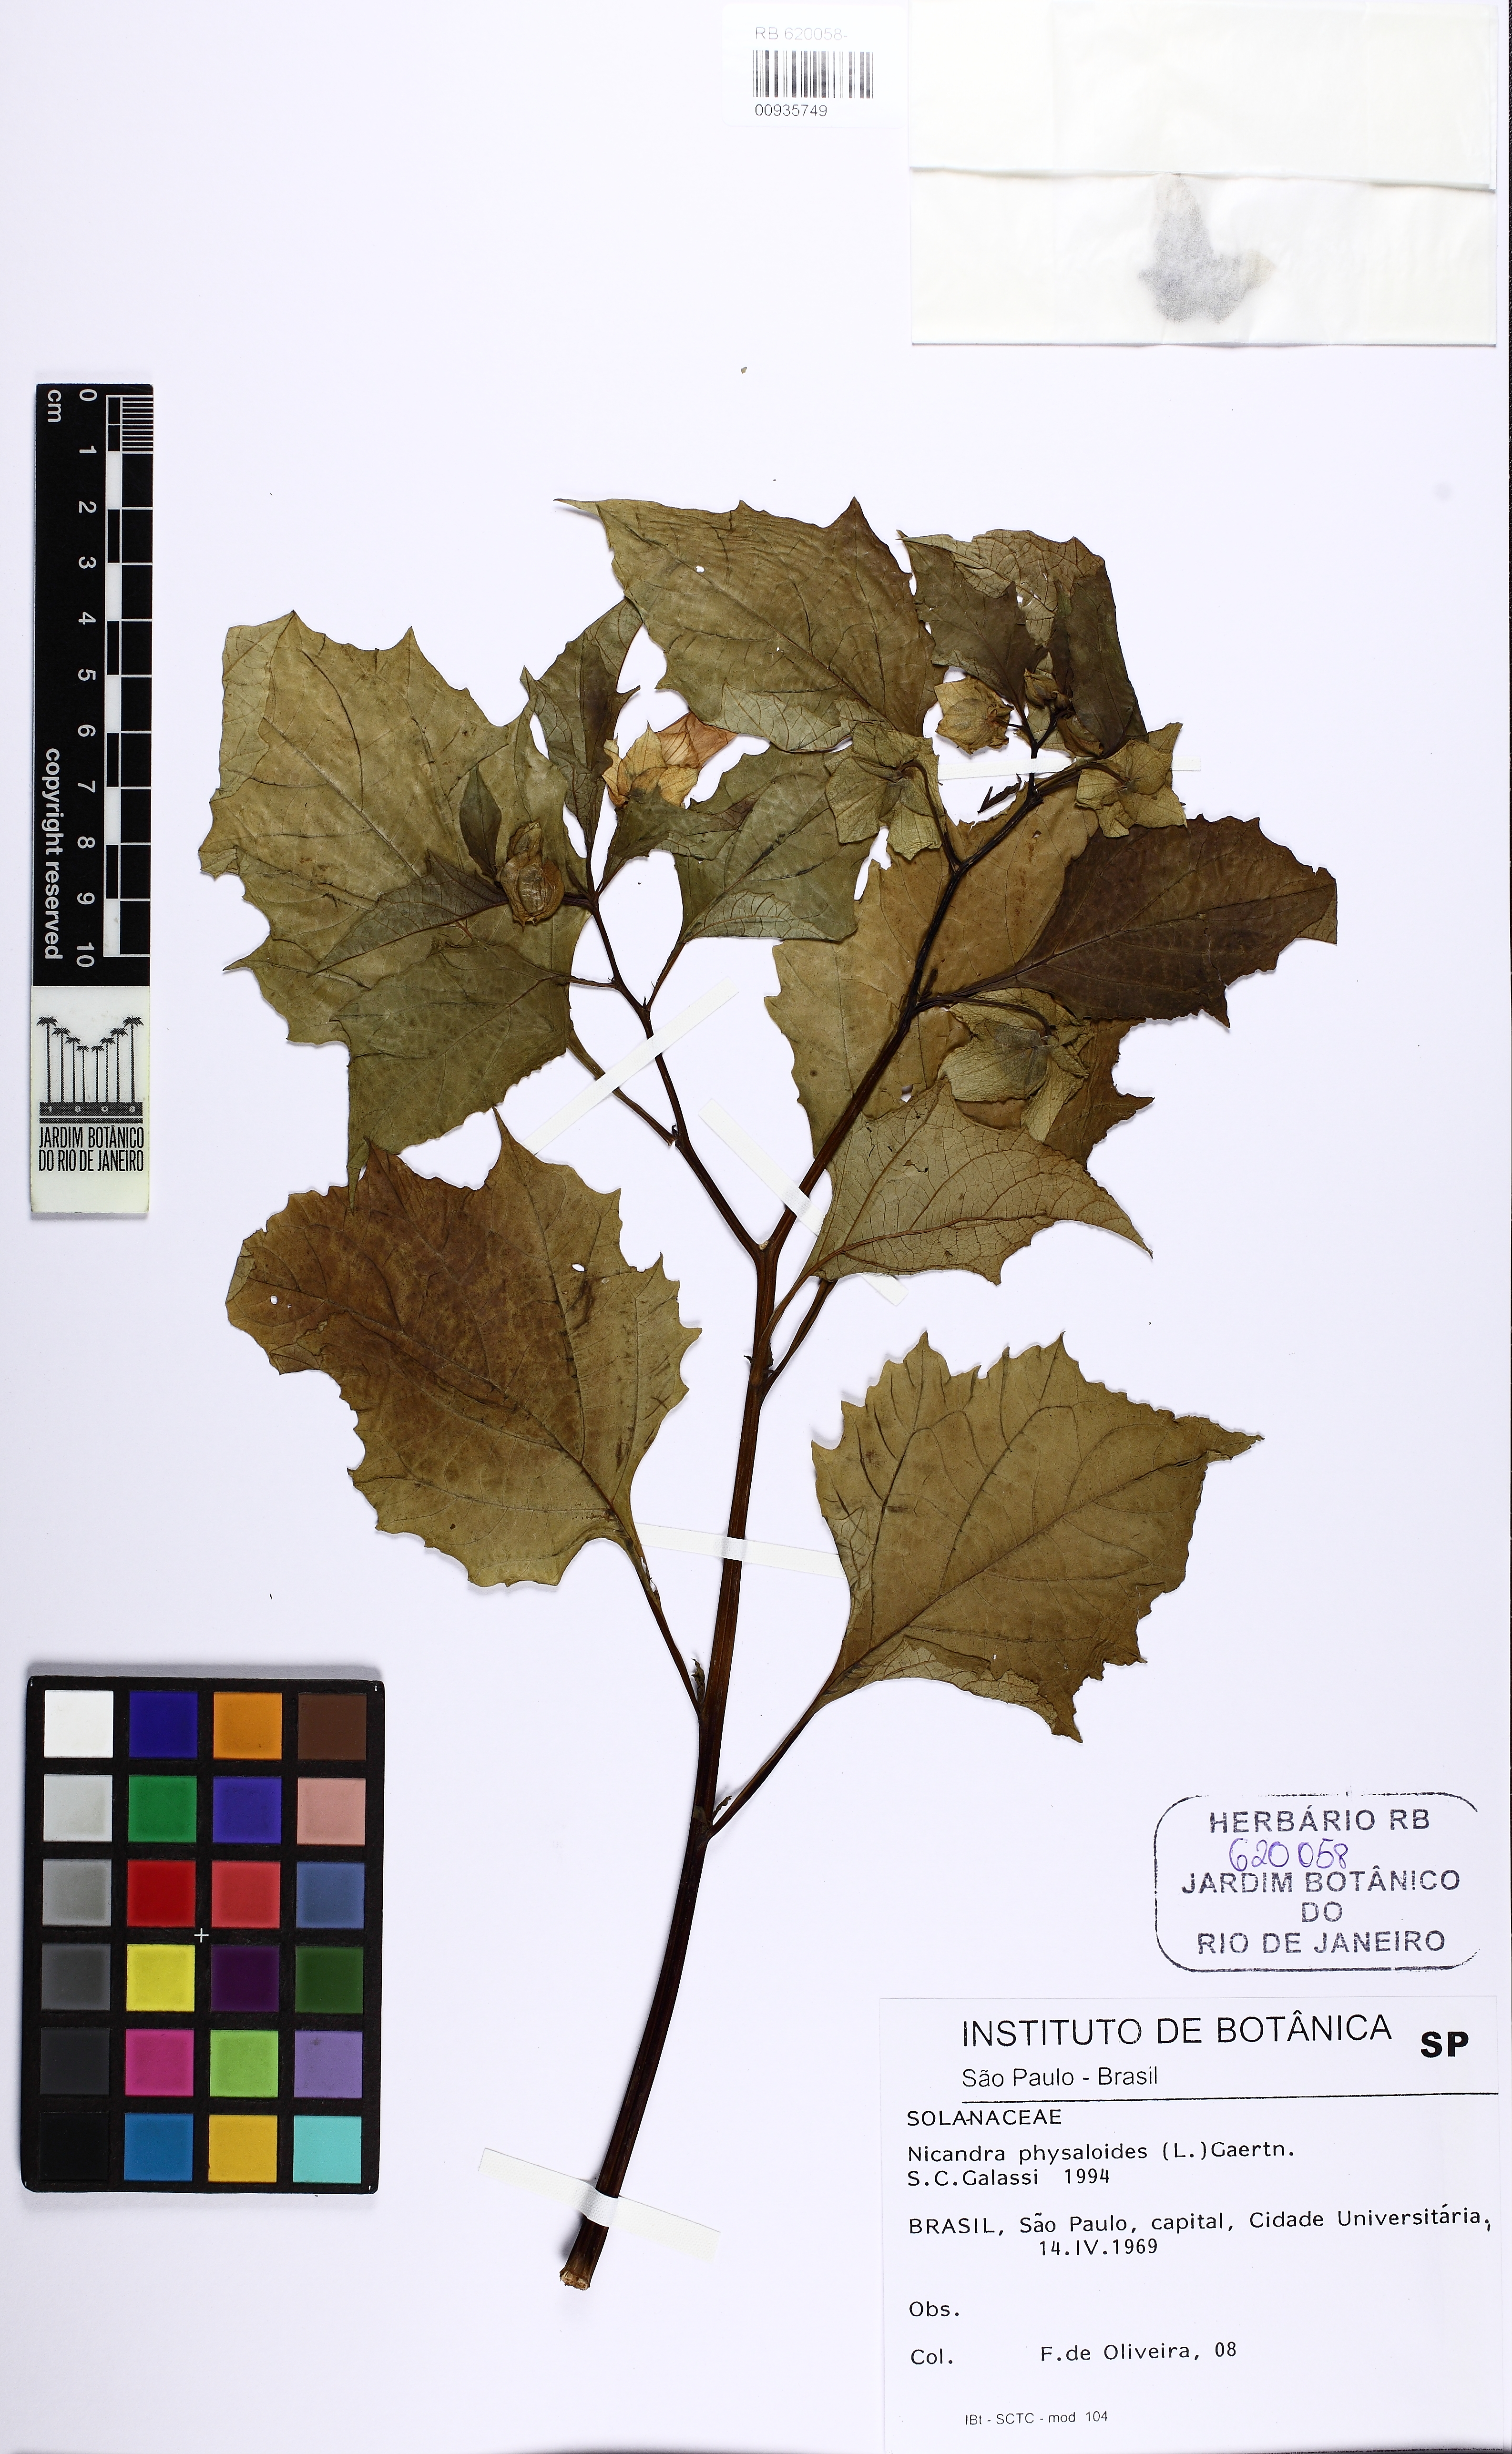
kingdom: Plantae
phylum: Tracheophyta
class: Magnoliopsida
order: Solanales
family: Solanaceae
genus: Nicandra
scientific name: Nicandra physalodes
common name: Apple-of-peru
